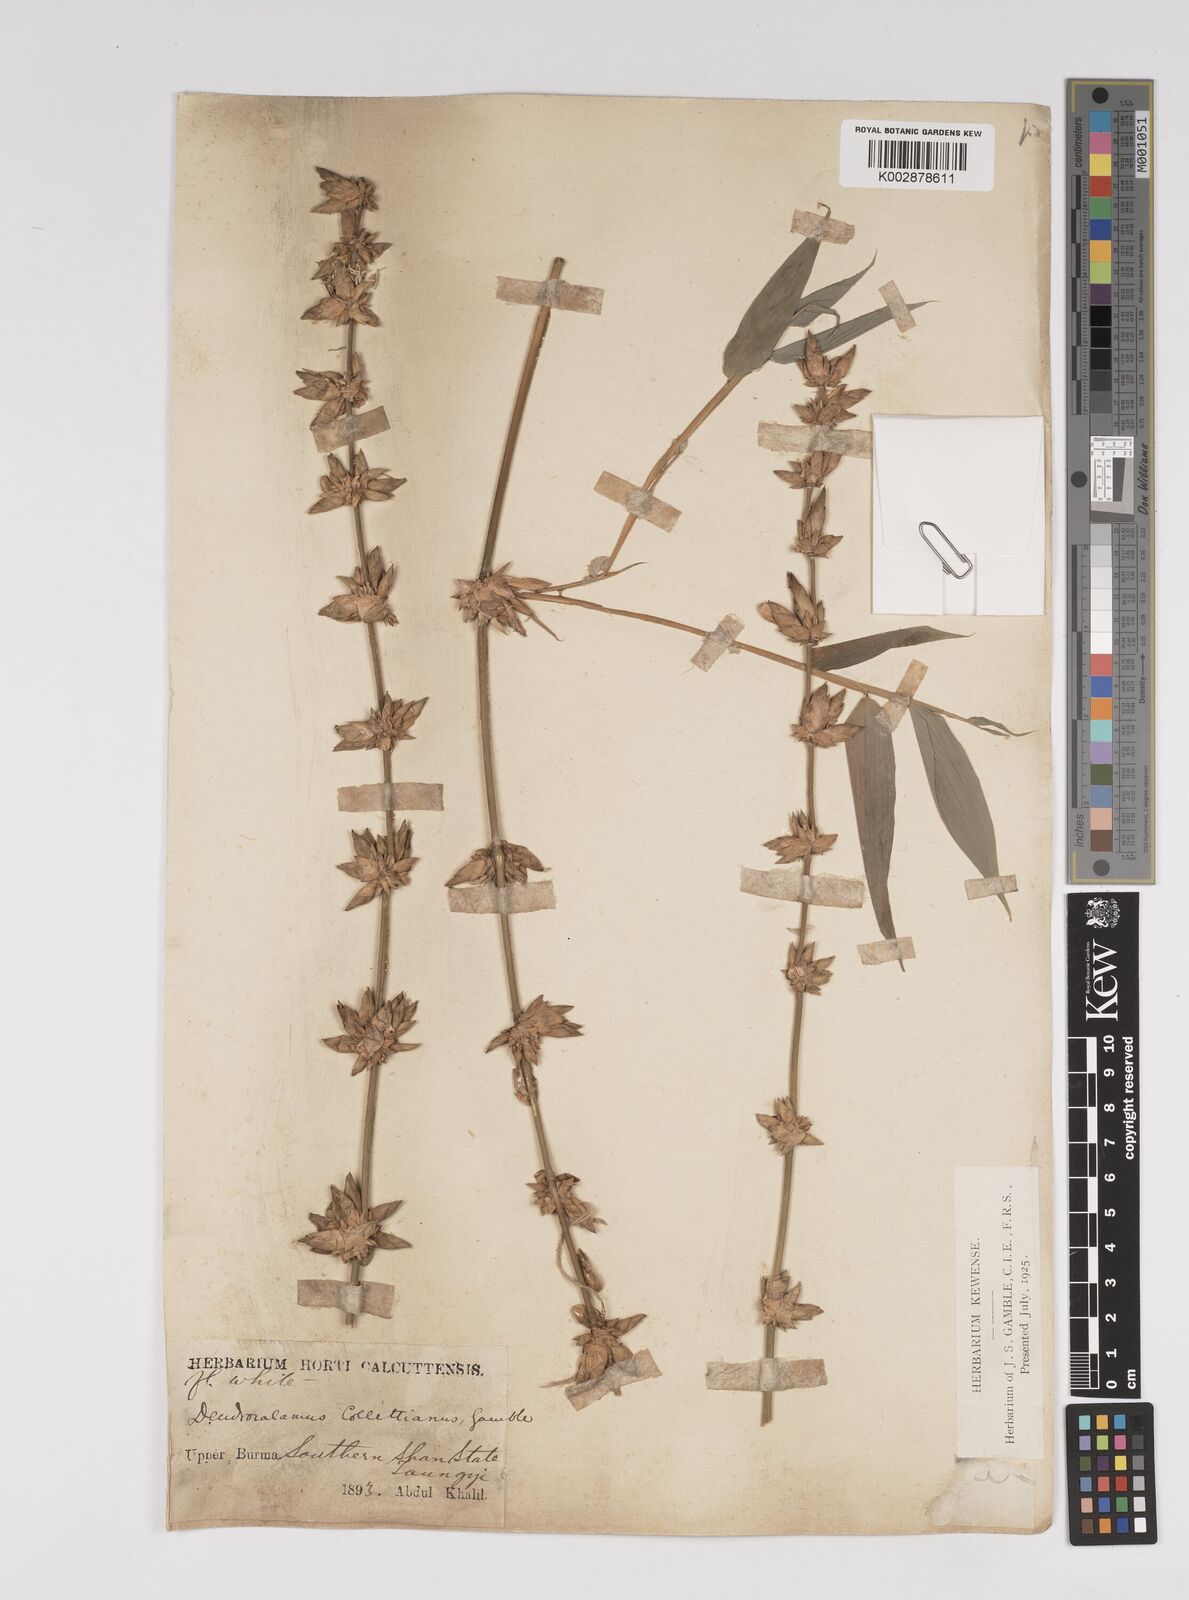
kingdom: Plantae
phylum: Tracheophyta
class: Liliopsida
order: Poales
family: Poaceae
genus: Dendrocalamus
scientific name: Dendrocalamus collettianus
